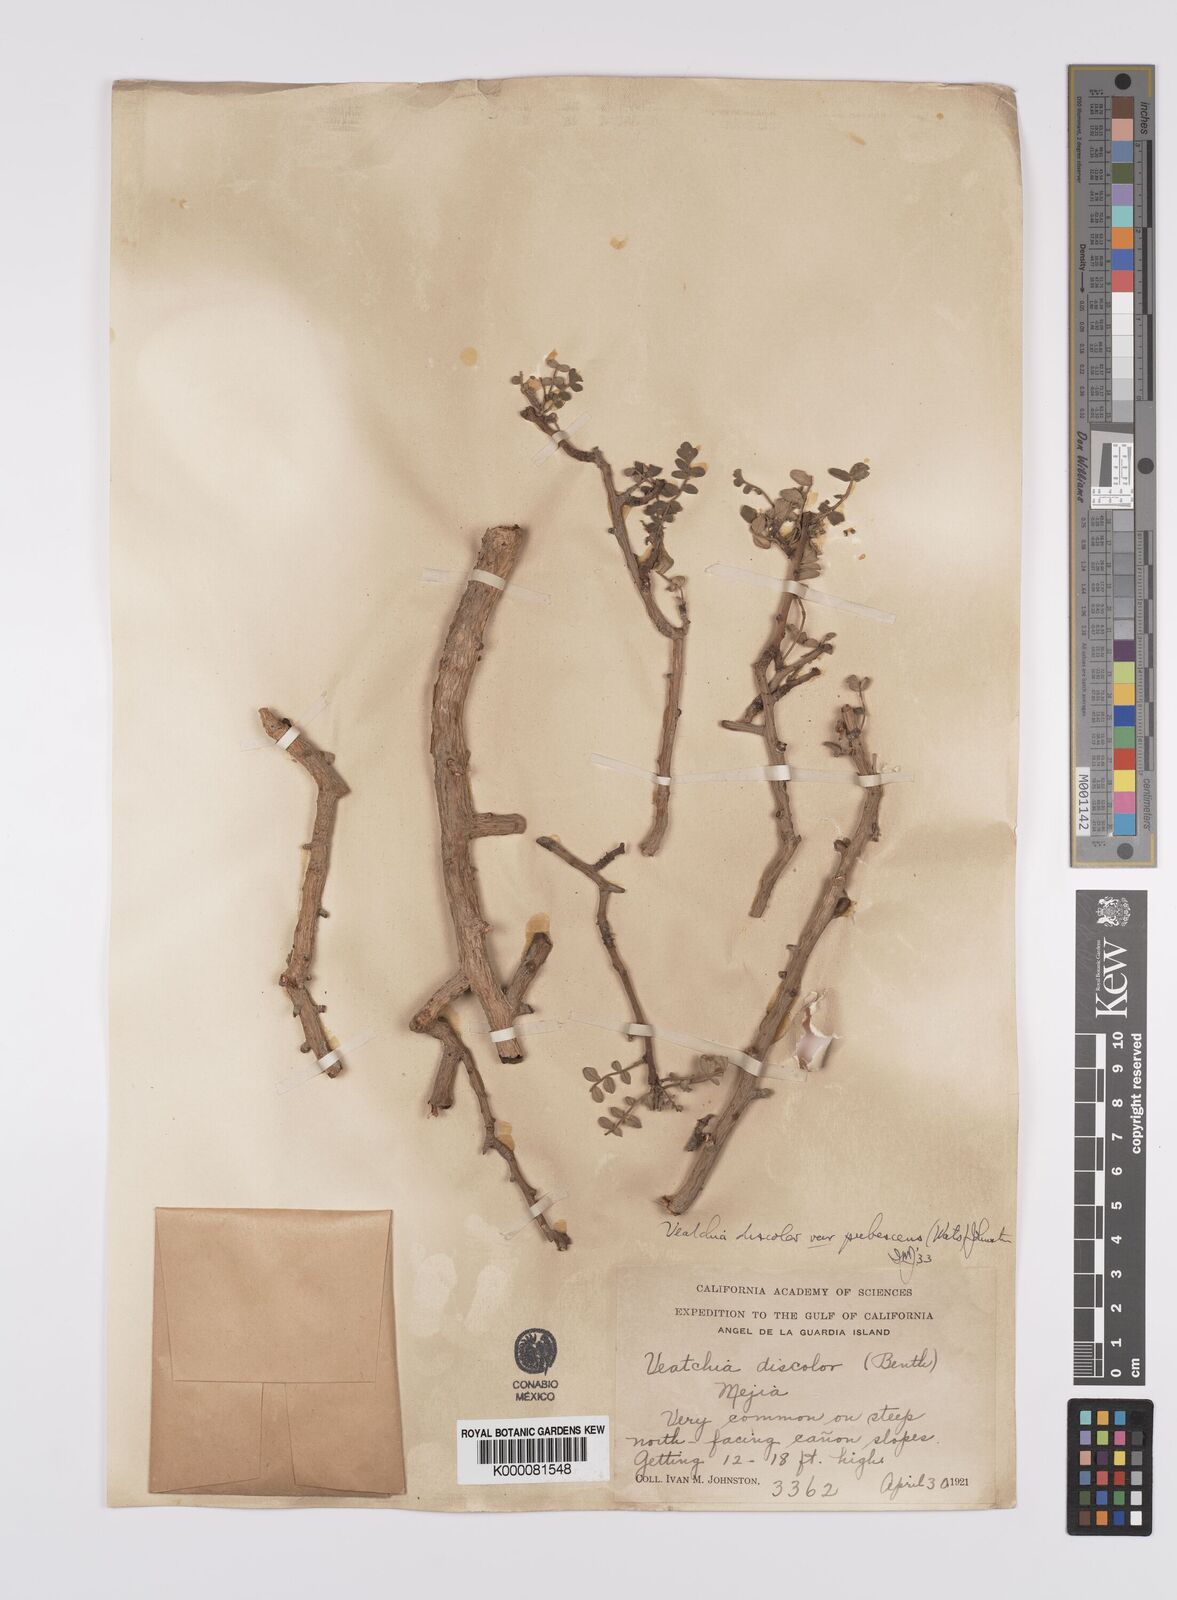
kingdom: Plantae
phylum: Tracheophyta
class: Magnoliopsida
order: Sapindales
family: Anacardiaceae
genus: Pachycormus
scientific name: Pachycormus
